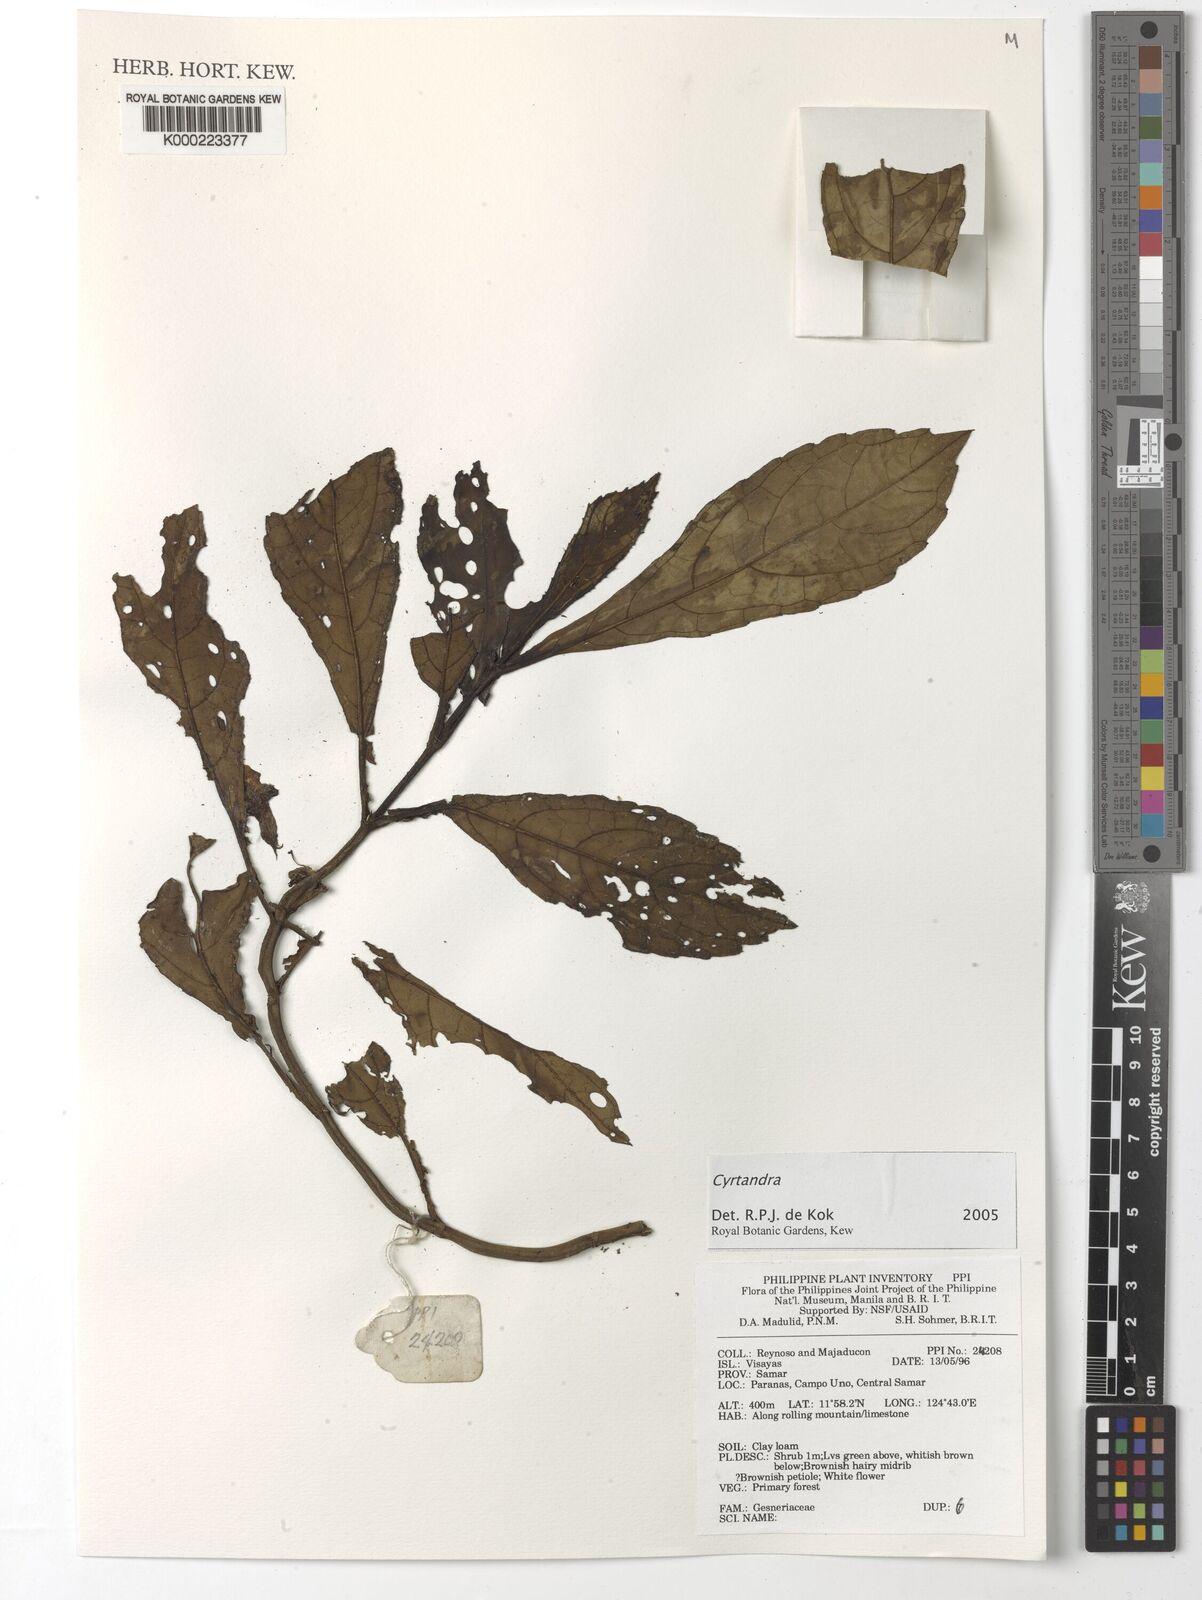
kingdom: Plantae
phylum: Tracheophyta
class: Magnoliopsida
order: Lamiales
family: Gesneriaceae
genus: Cyrtandra
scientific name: Cyrtandra
